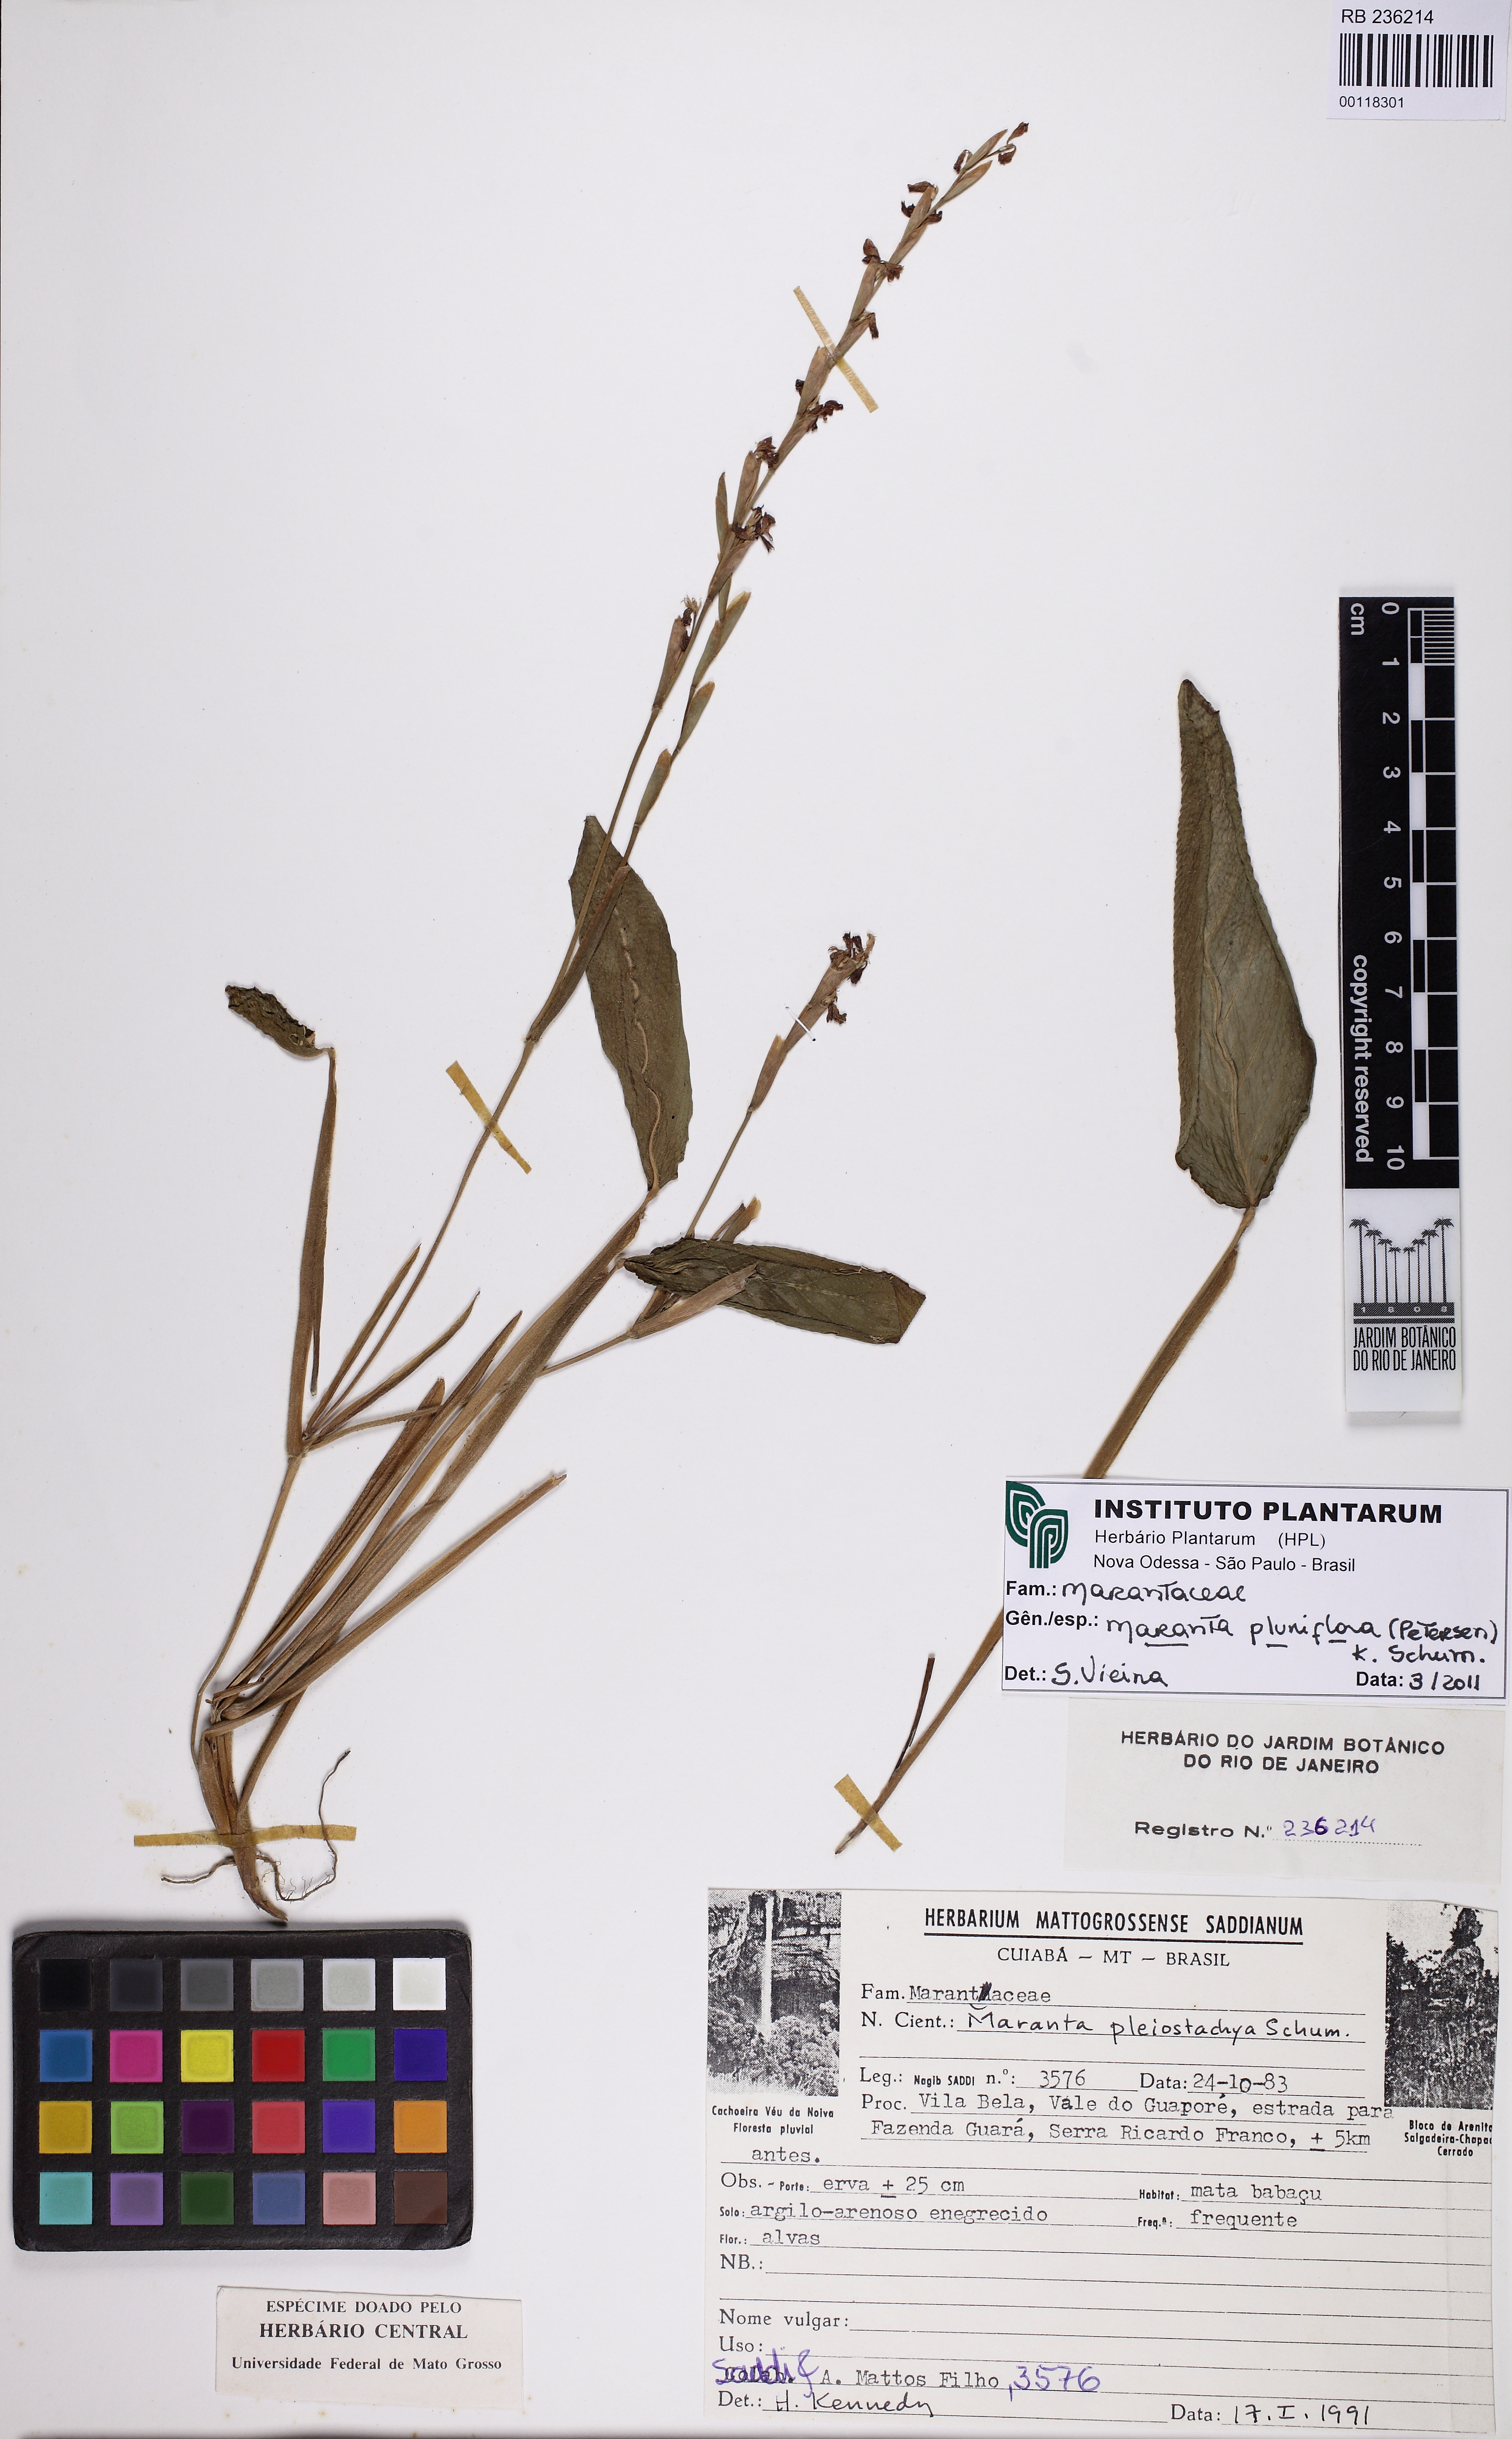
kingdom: Plantae
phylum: Tracheophyta
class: Liliopsida
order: Zingiberales
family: Marantaceae
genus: Maranta
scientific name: Maranta pluriflora
